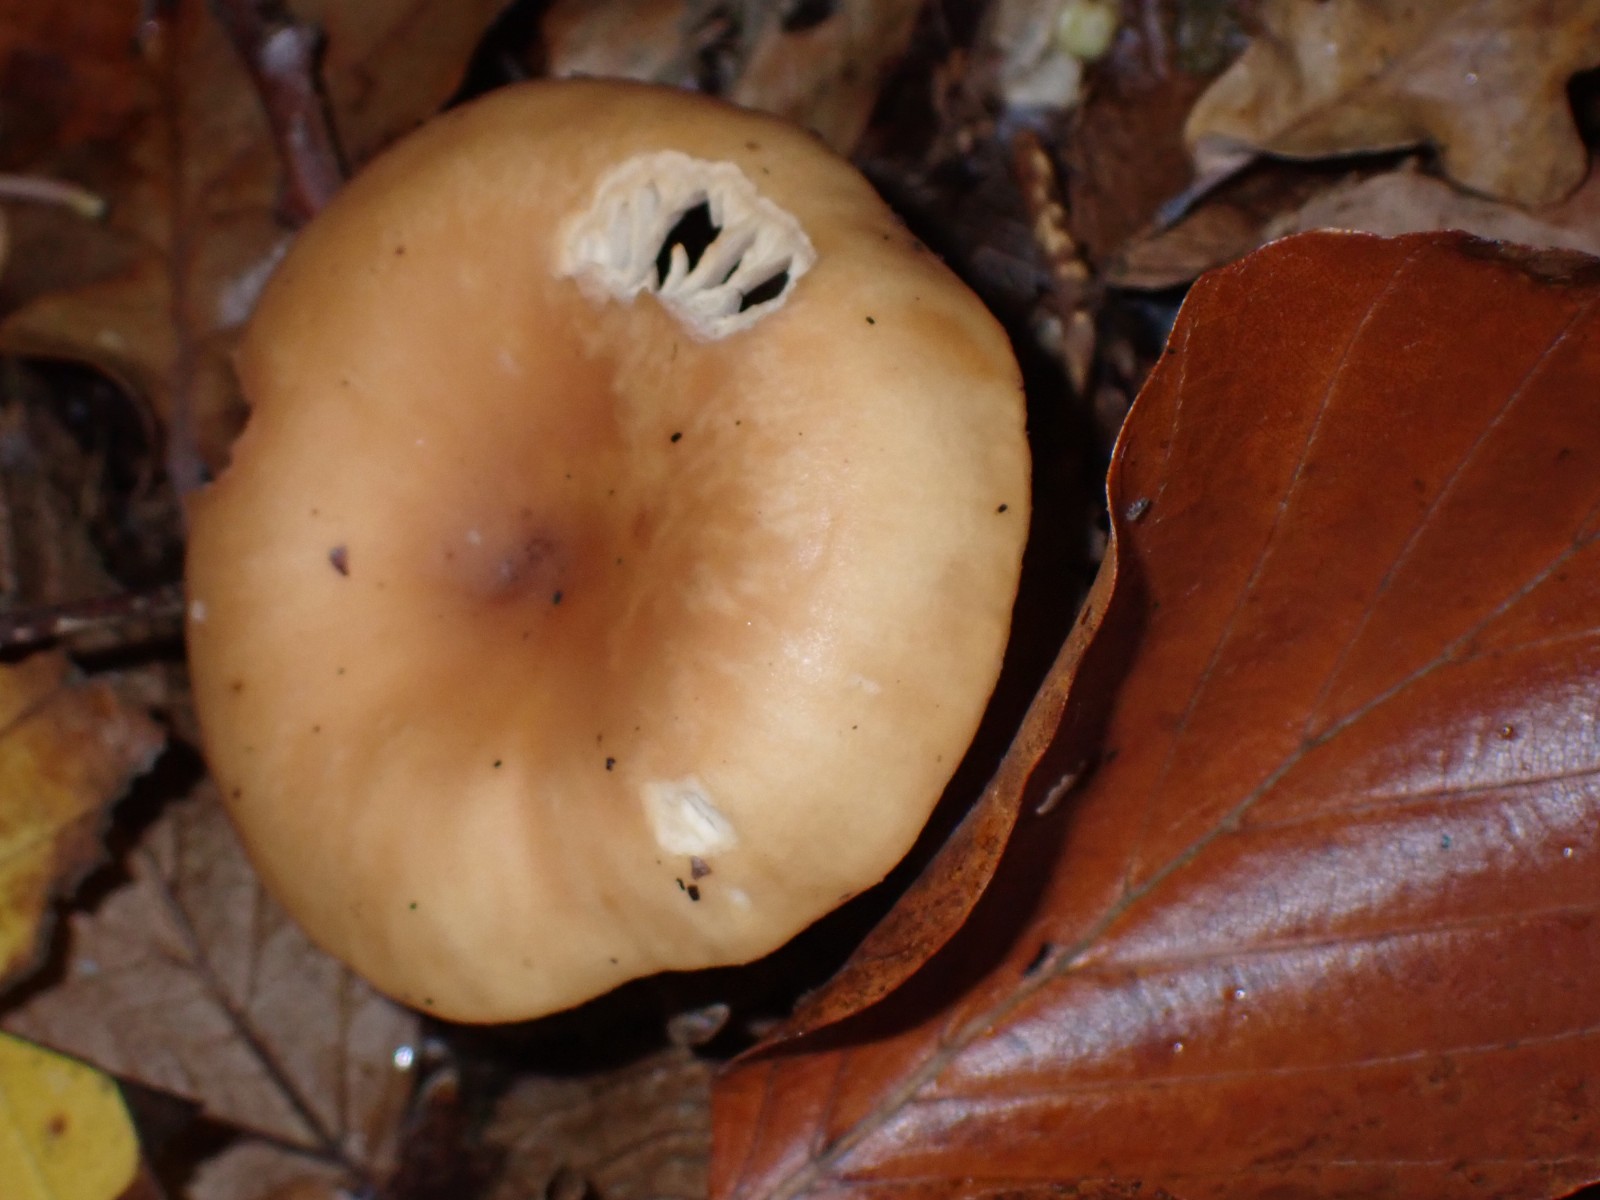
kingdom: Fungi
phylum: Basidiomycota
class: Agaricomycetes
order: Agaricales
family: Tricholomataceae
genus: Paralepista
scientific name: Paralepista flaccida
